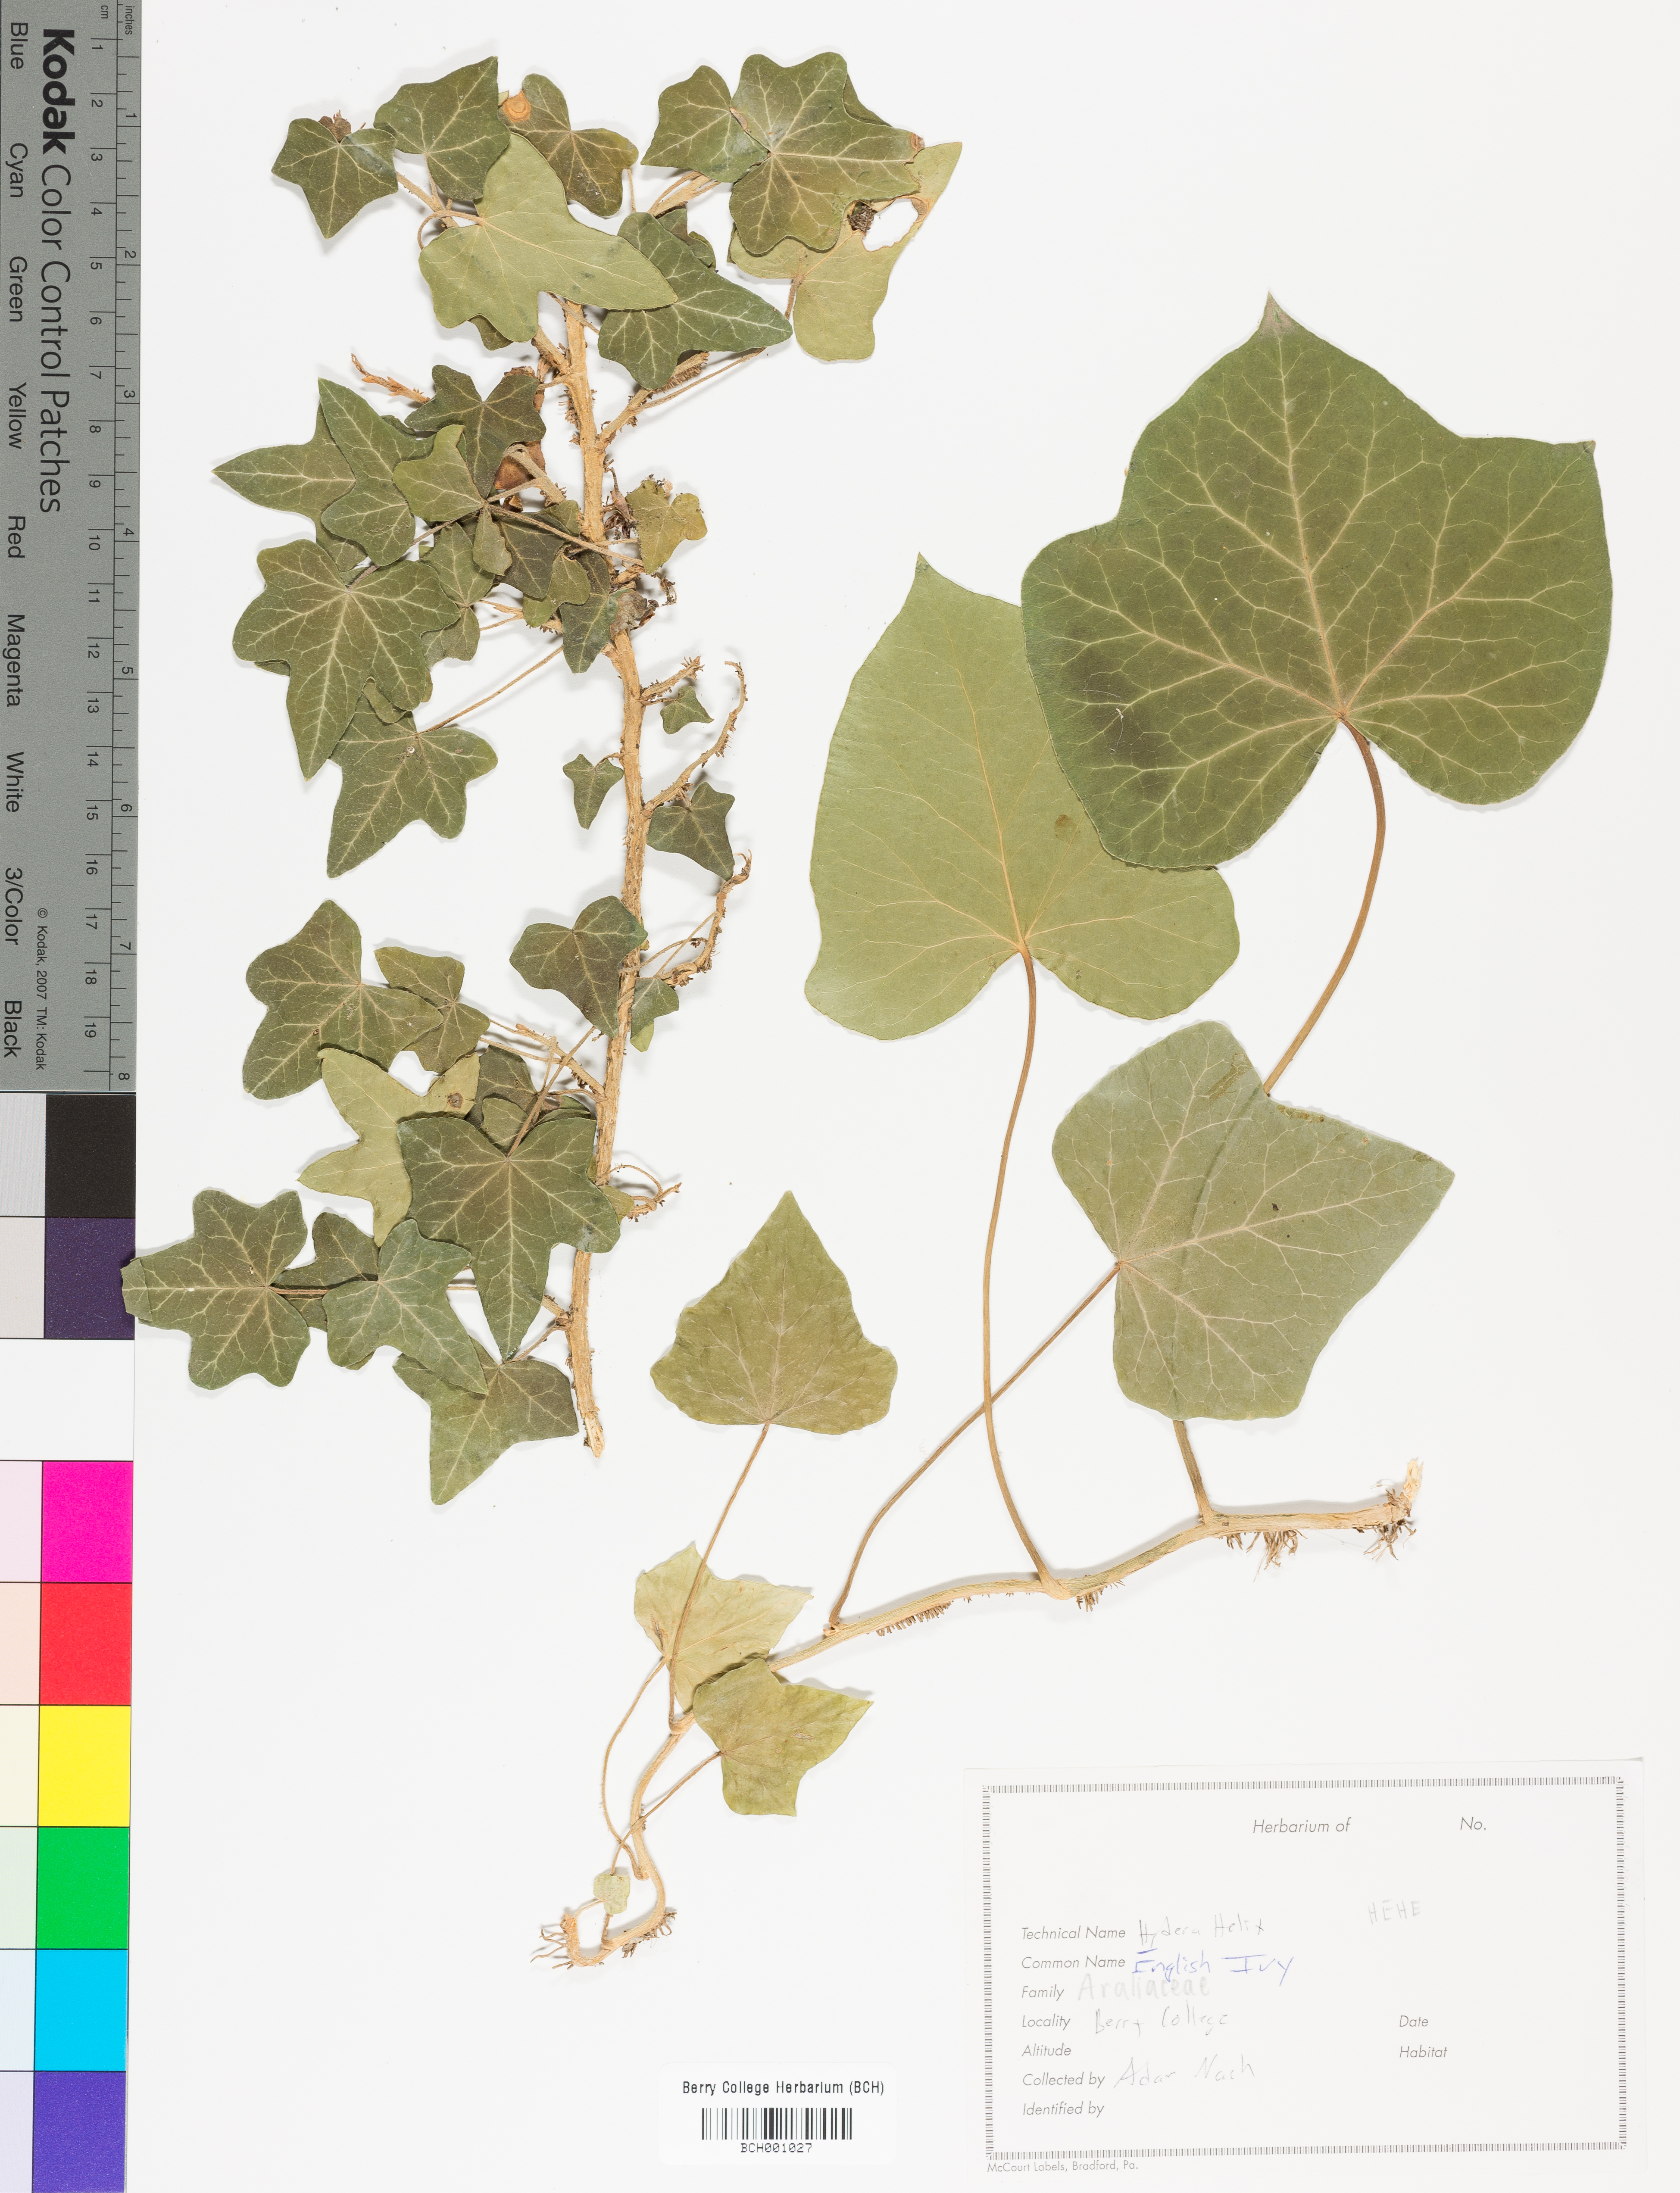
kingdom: Plantae
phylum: Tracheophyta
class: Magnoliopsida
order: Apiales
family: Araliaceae
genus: Hedera
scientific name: Hedera helix
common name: Ivy
